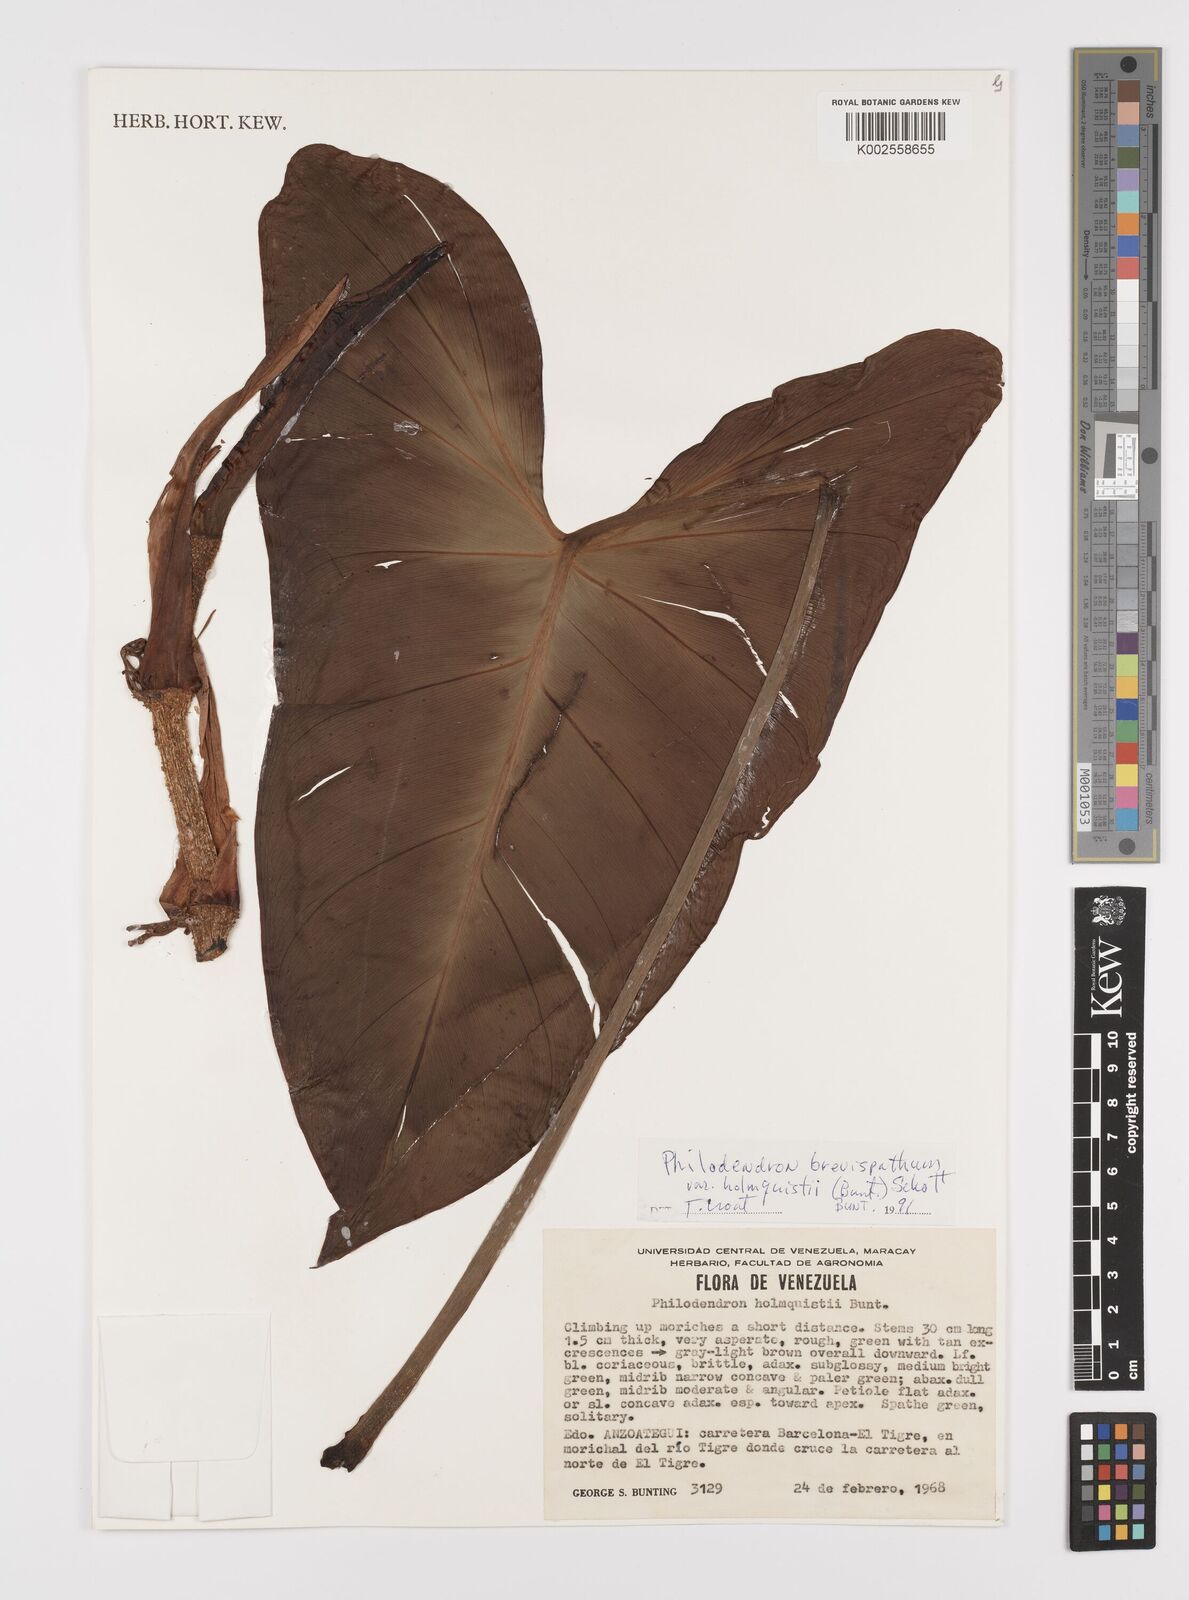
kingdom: Plantae
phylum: Tracheophyta
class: Liliopsida
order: Alismatales
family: Araceae
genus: Philodendron
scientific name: Philodendron brevispathum
